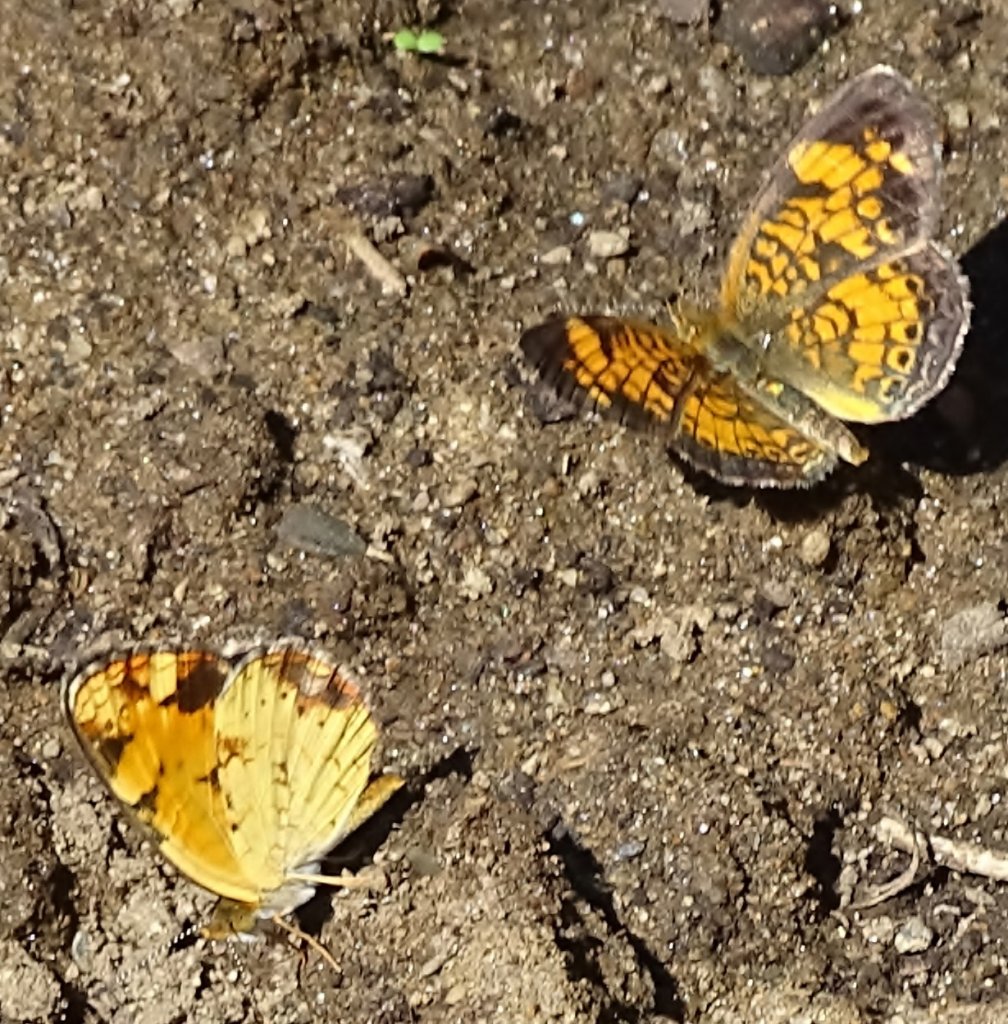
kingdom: Animalia
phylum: Arthropoda
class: Insecta
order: Lepidoptera
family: Nymphalidae
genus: Phyciodes
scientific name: Phyciodes
